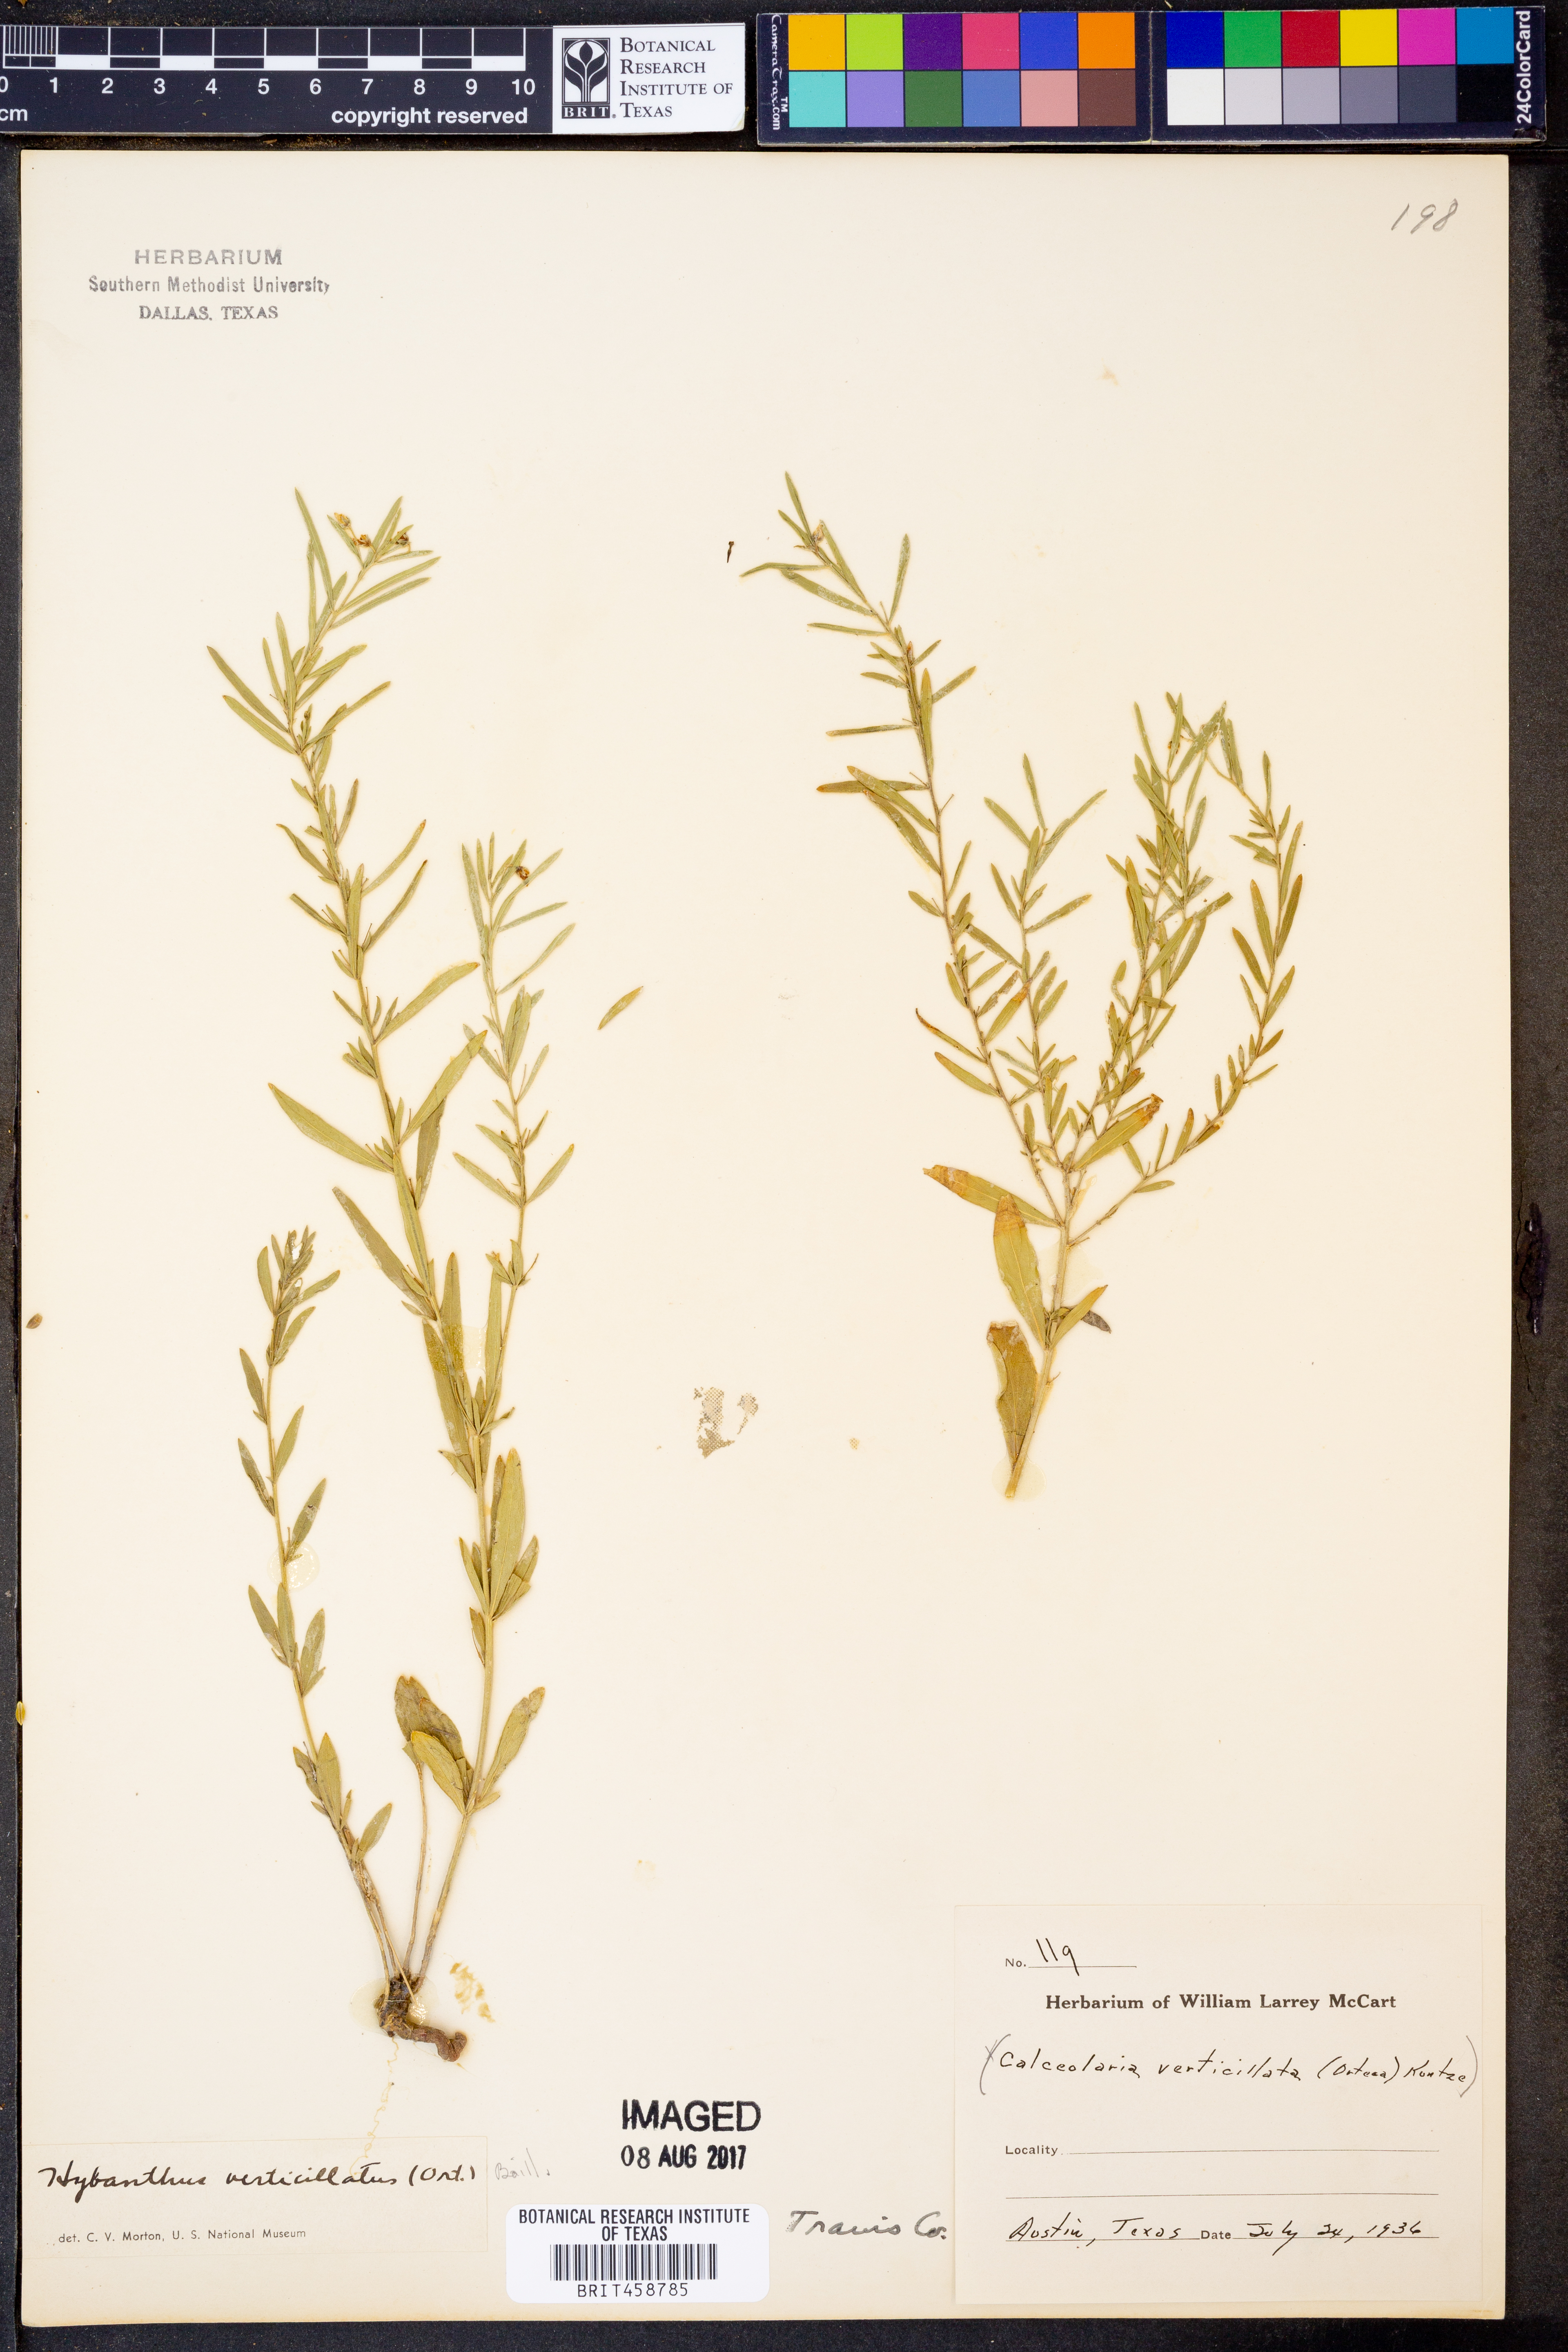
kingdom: Plantae
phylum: Tracheophyta
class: Magnoliopsida
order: Malpighiales
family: Violaceae
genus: Pombalia
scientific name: Pombalia verticillata
